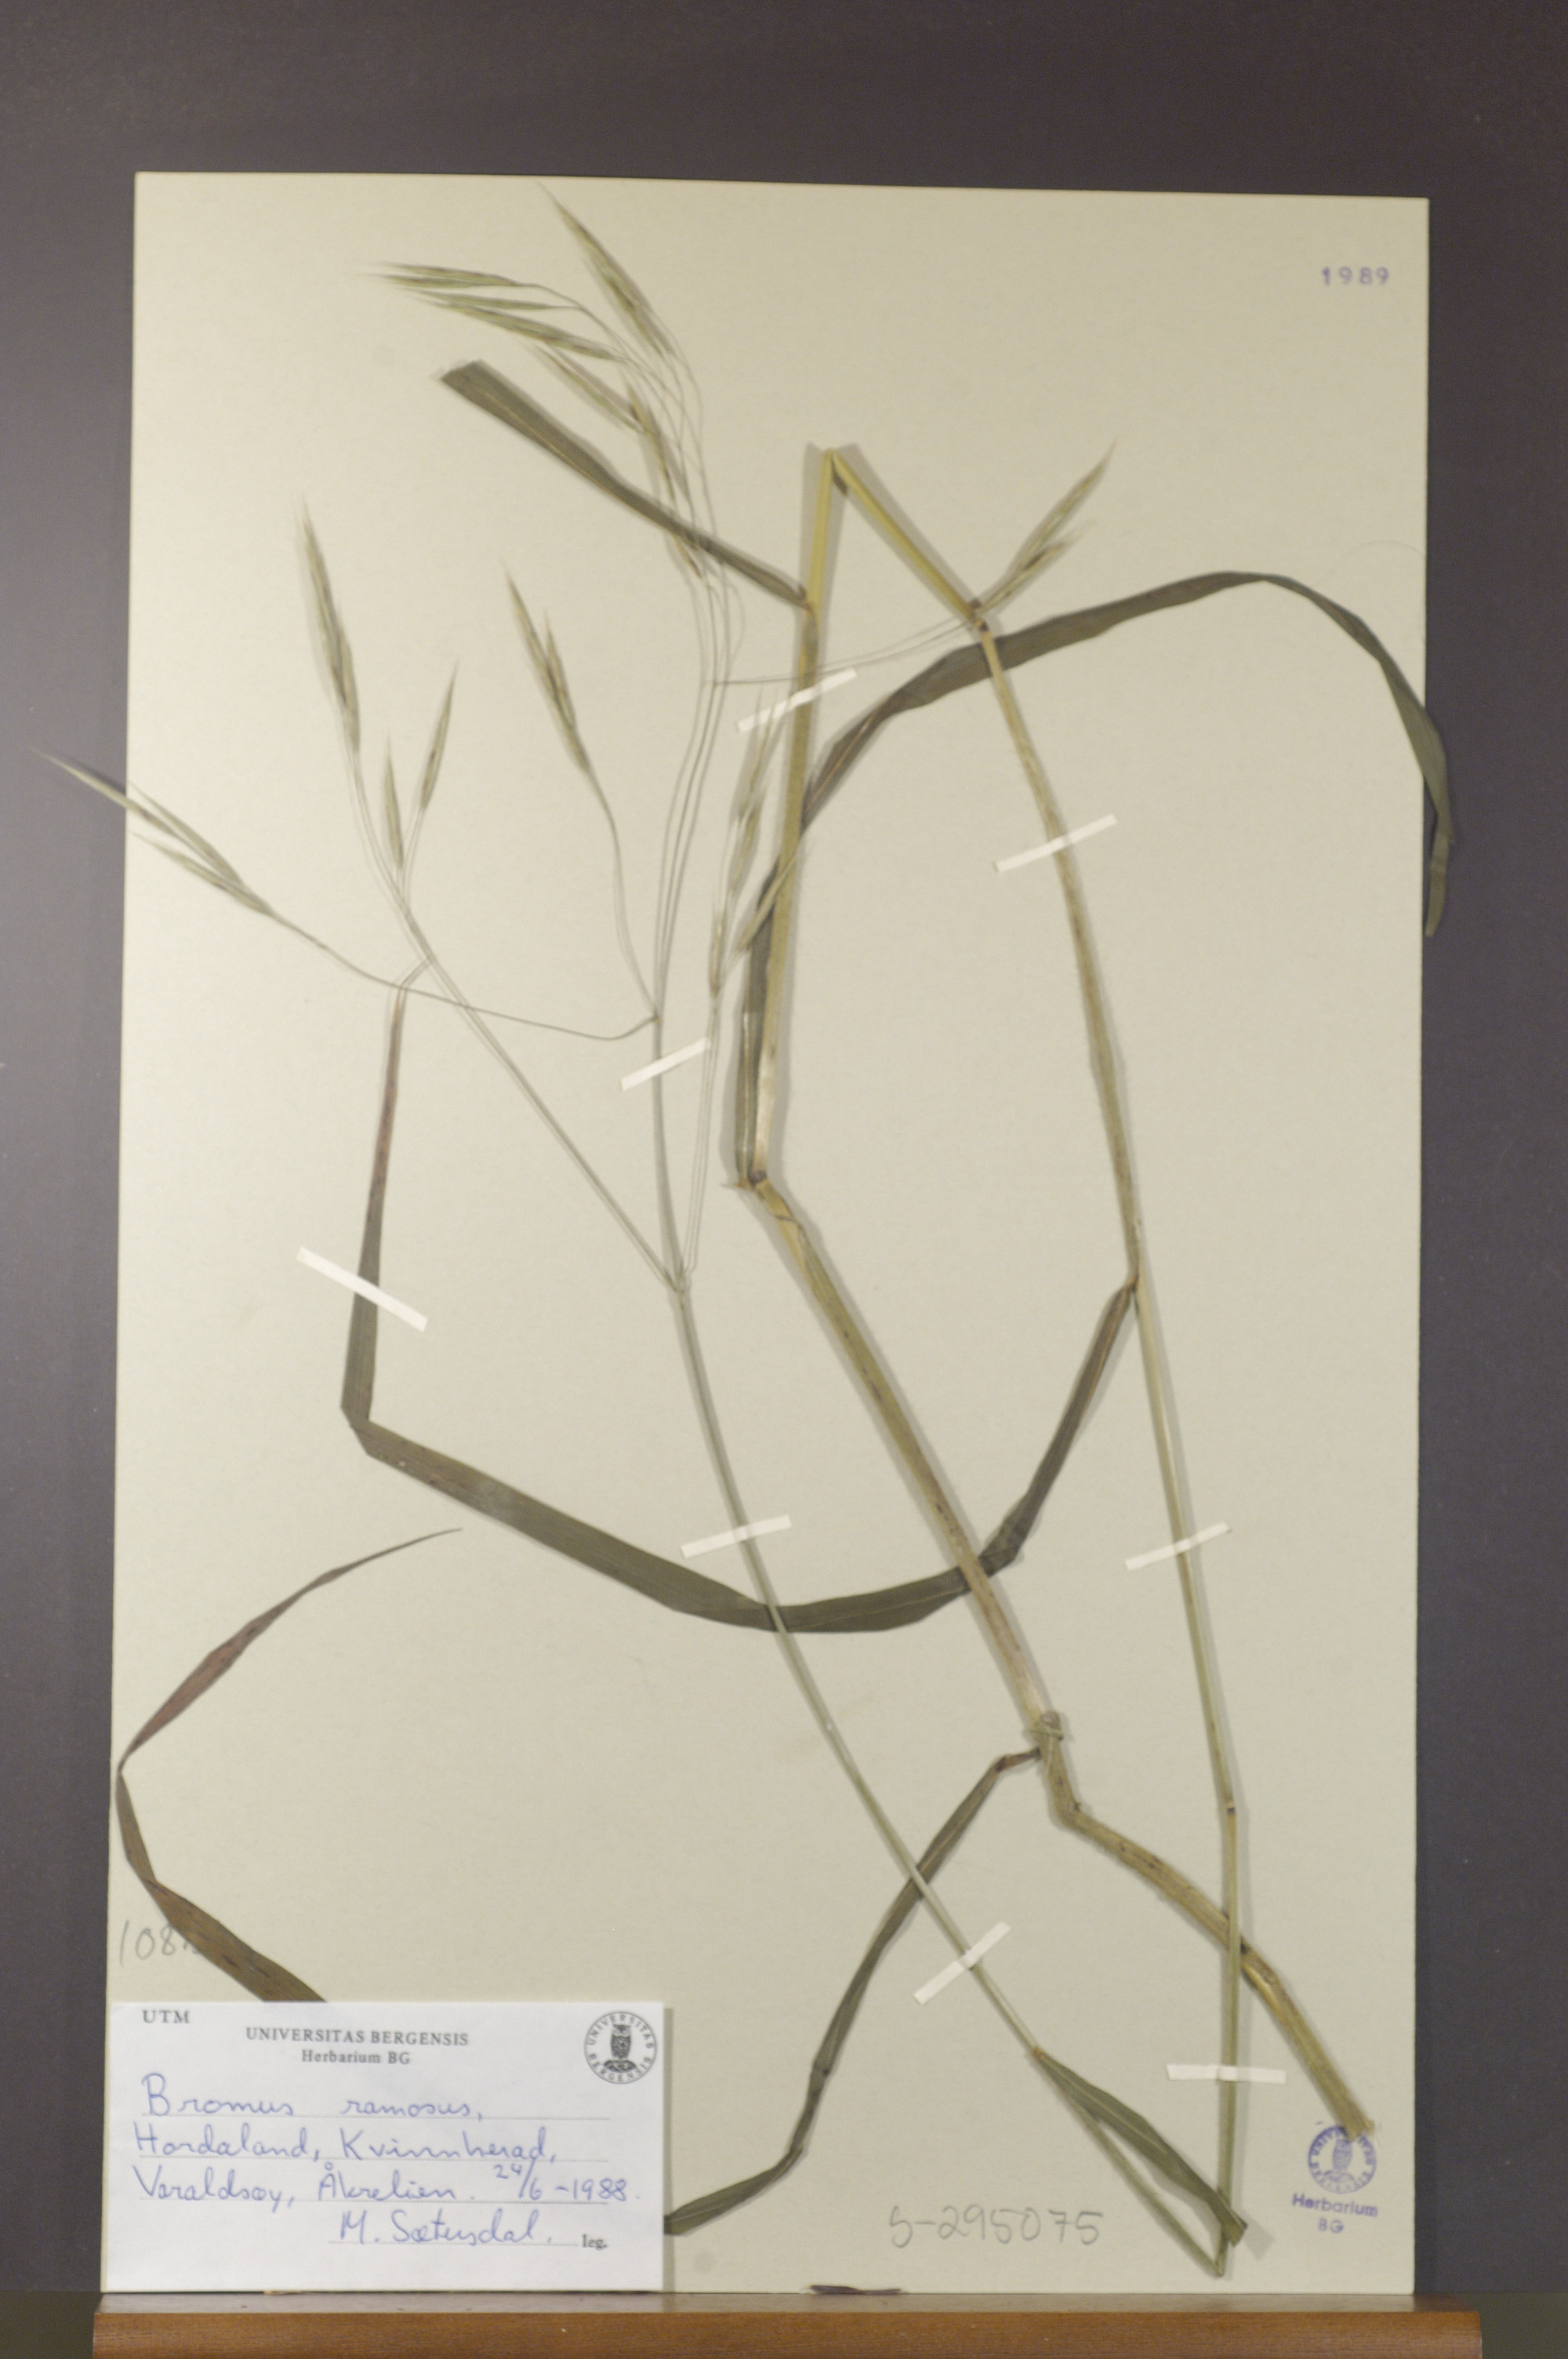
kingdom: Plantae
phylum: Tracheophyta
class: Liliopsida
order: Poales
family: Poaceae
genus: Bromus
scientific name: Bromus ramosus
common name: Hairy brome
